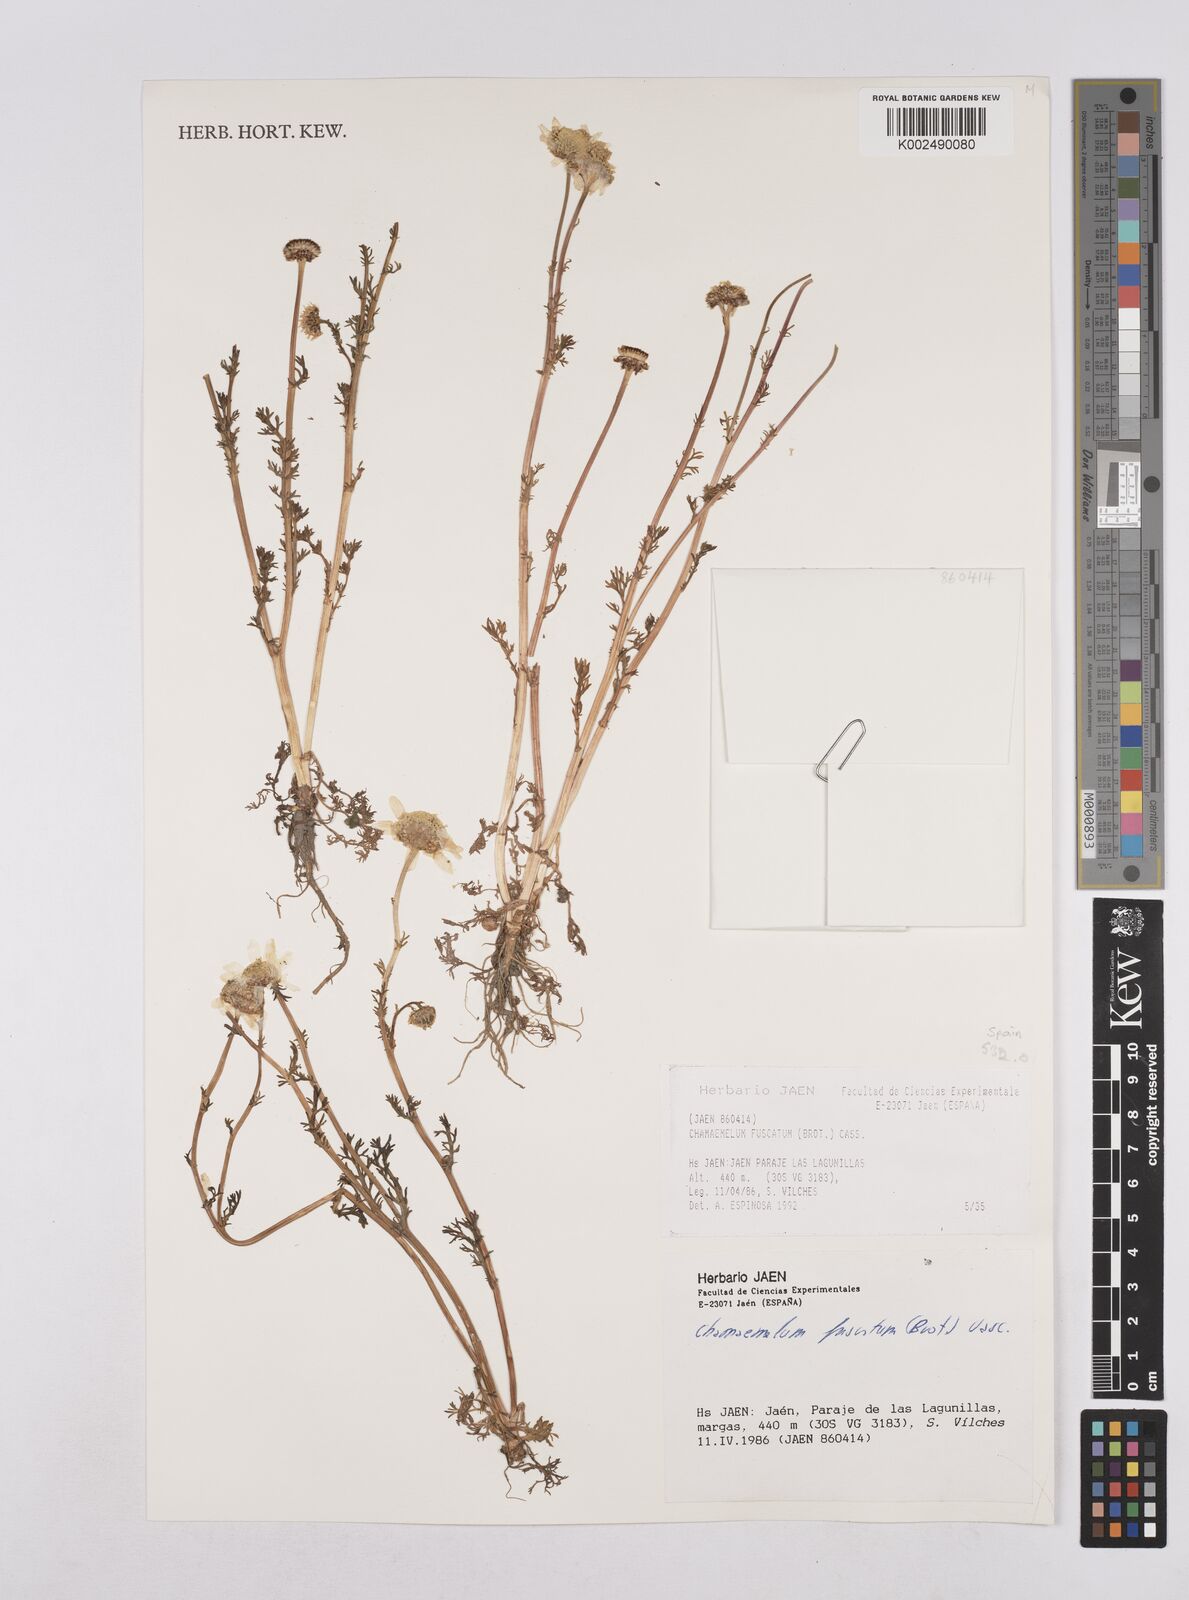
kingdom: Plantae
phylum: Tracheophyta
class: Magnoliopsida
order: Asterales
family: Asteraceae
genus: Chamaemelum
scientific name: Chamaemelum fuscatum
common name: Chamomile
